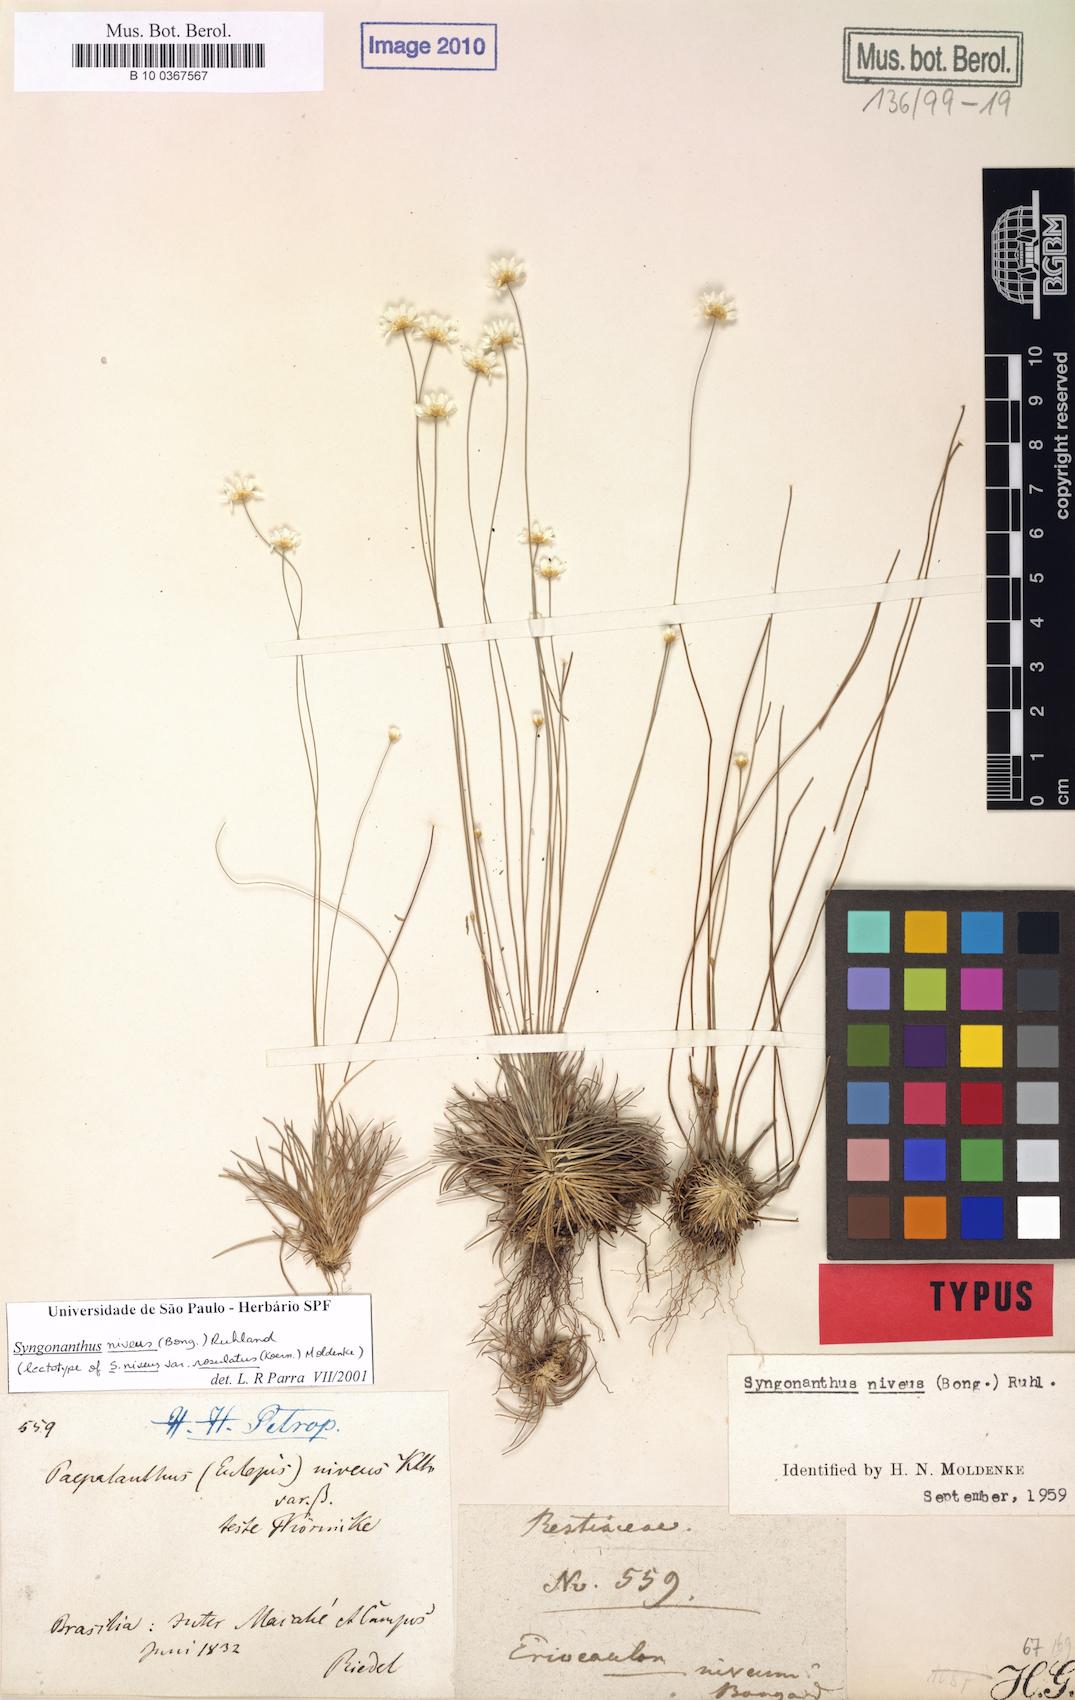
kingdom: Plantae
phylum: Tracheophyta
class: Liliopsida
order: Poales
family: Eriocaulaceae
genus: Comanthera
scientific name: Comanthera nivea
